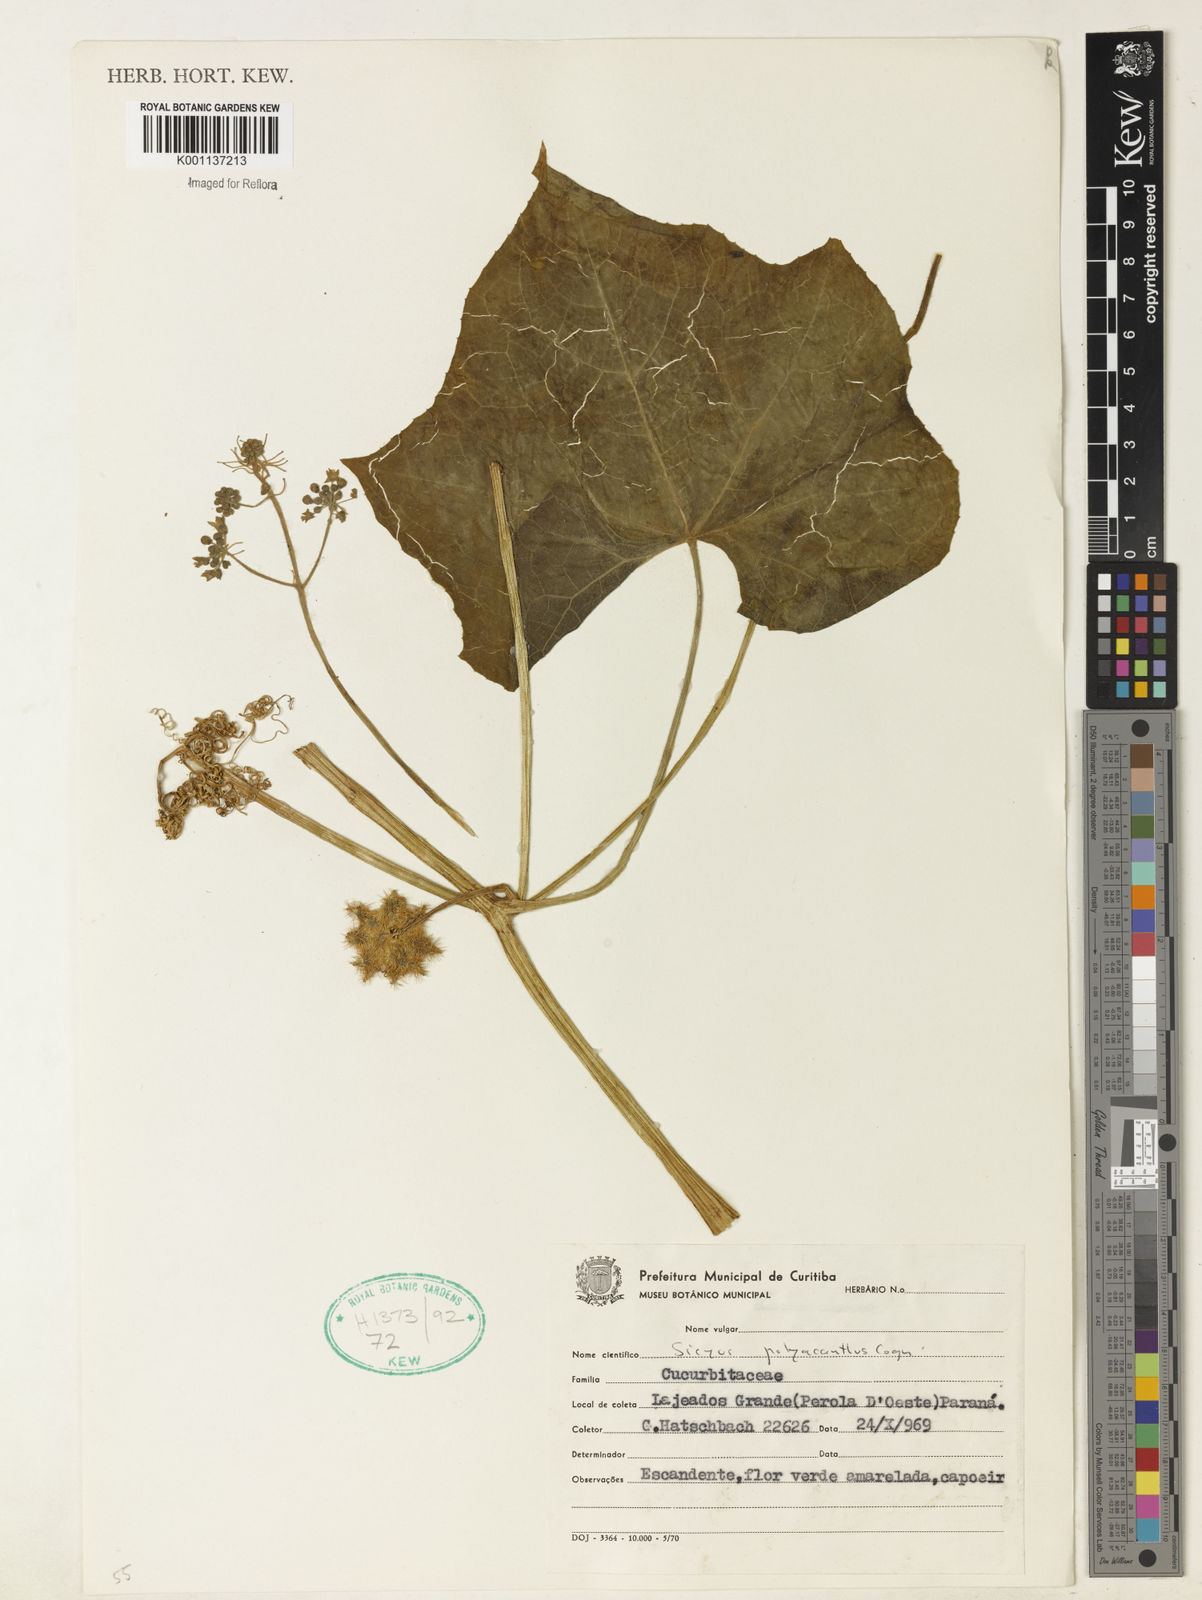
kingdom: Plantae
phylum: Tracheophyta
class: Magnoliopsida
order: Cucurbitales
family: Cucurbitaceae
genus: Sicyos
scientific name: Sicyos polyacanthos
